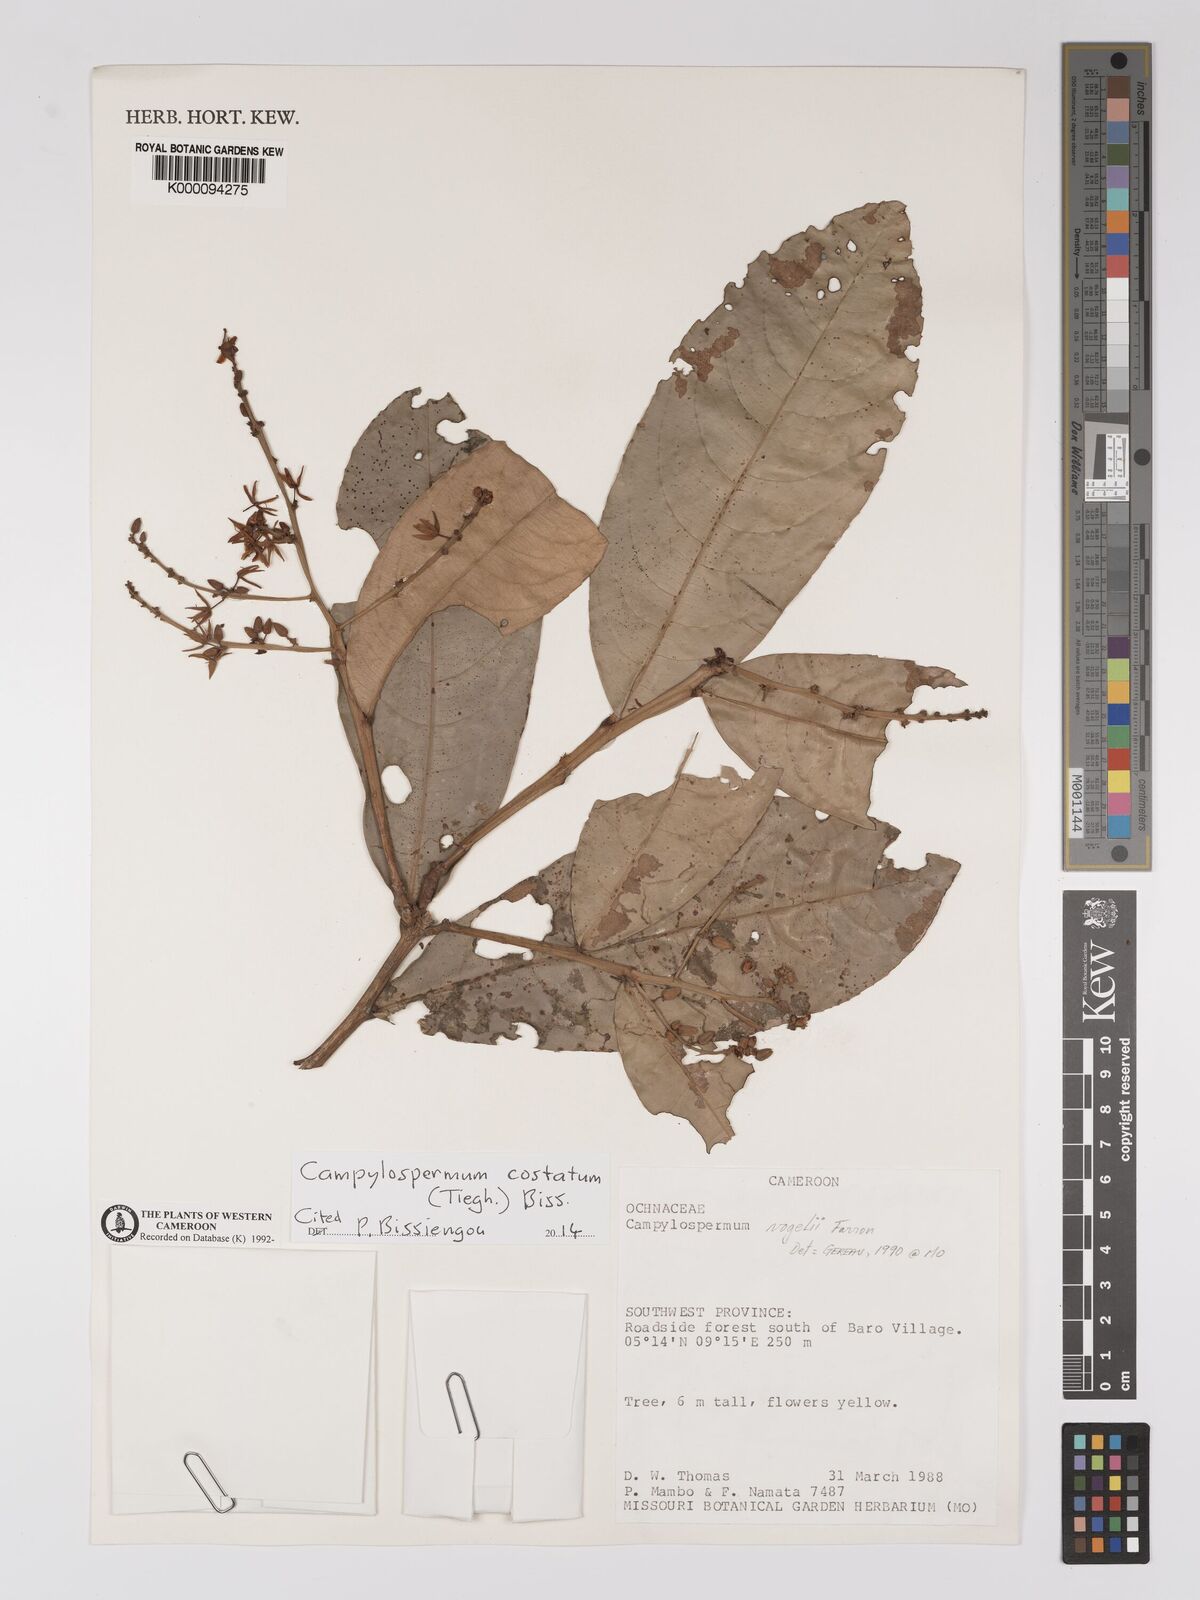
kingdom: Plantae
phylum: Tracheophyta
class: Magnoliopsida
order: Malpighiales
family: Ochnaceae
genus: Campylospermum
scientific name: Campylospermum vogelii
